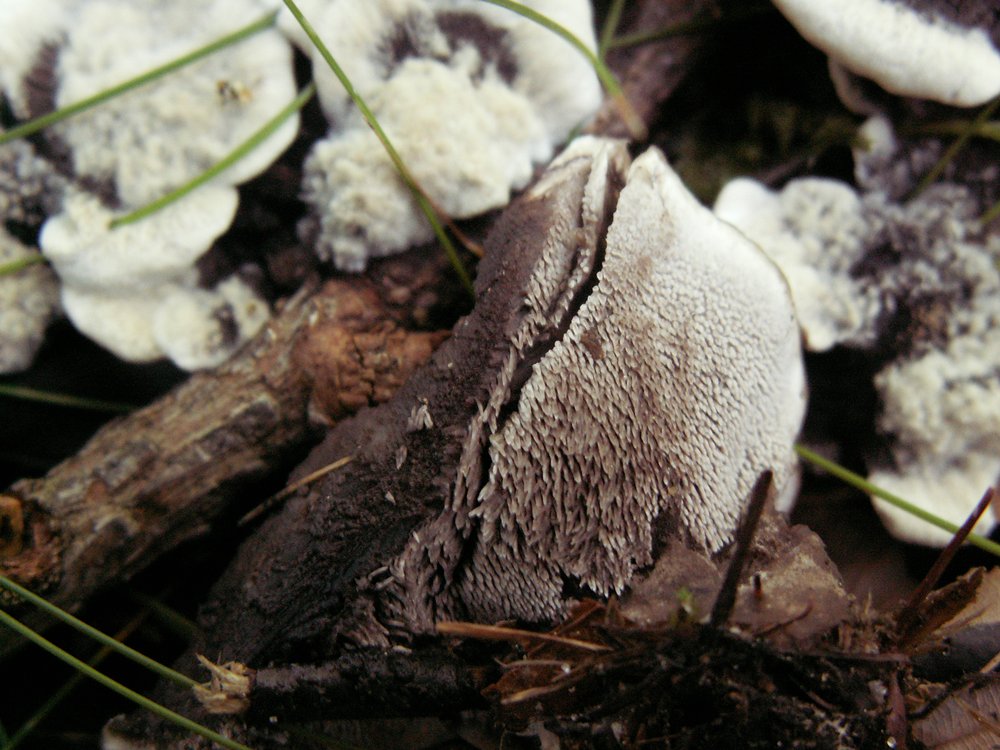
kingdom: Fungi
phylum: Basidiomycota
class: Agaricomycetes
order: Thelephorales
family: Thelephoraceae
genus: Phellodon
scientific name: Phellodon confluens
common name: pjaltet duftpigsvamp
